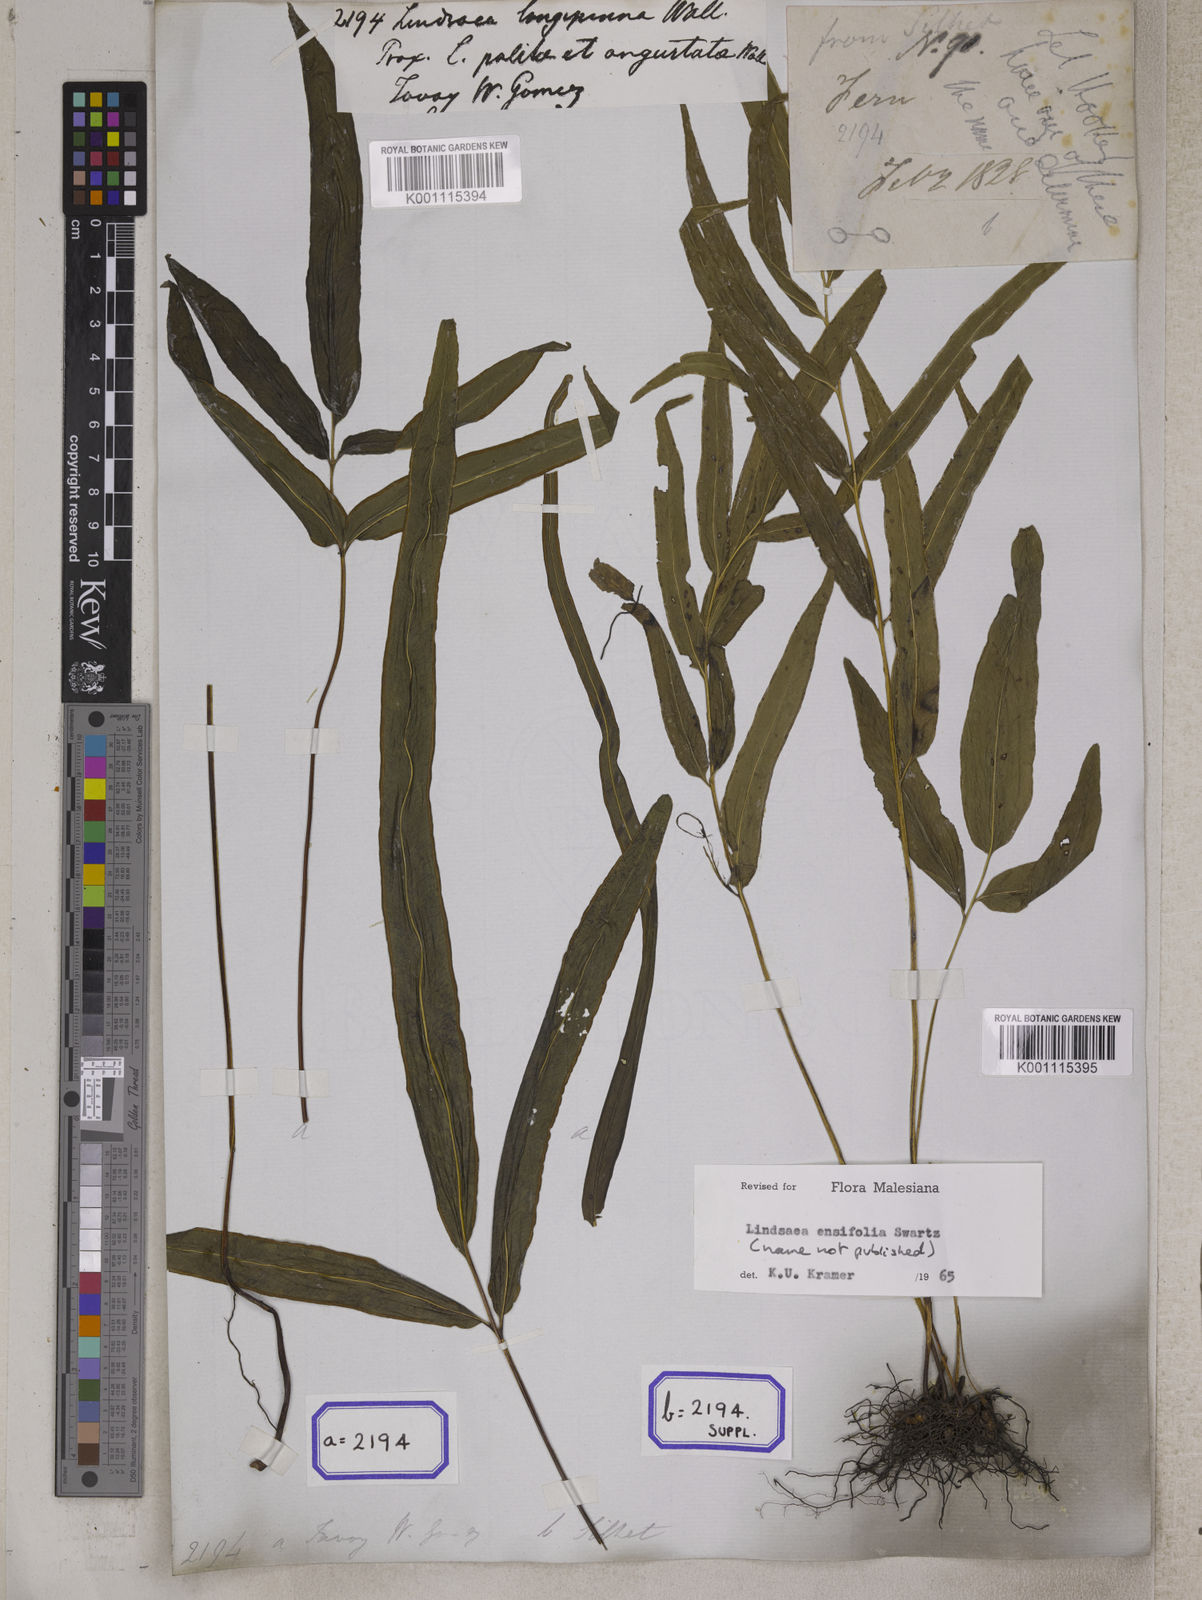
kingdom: Plantae
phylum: Tracheophyta
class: Polypodiopsida
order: Polypodiales
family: Lindsaeaceae
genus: Lindsaea
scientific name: Lindsaea ensifolia
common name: Graceful necklace fern
